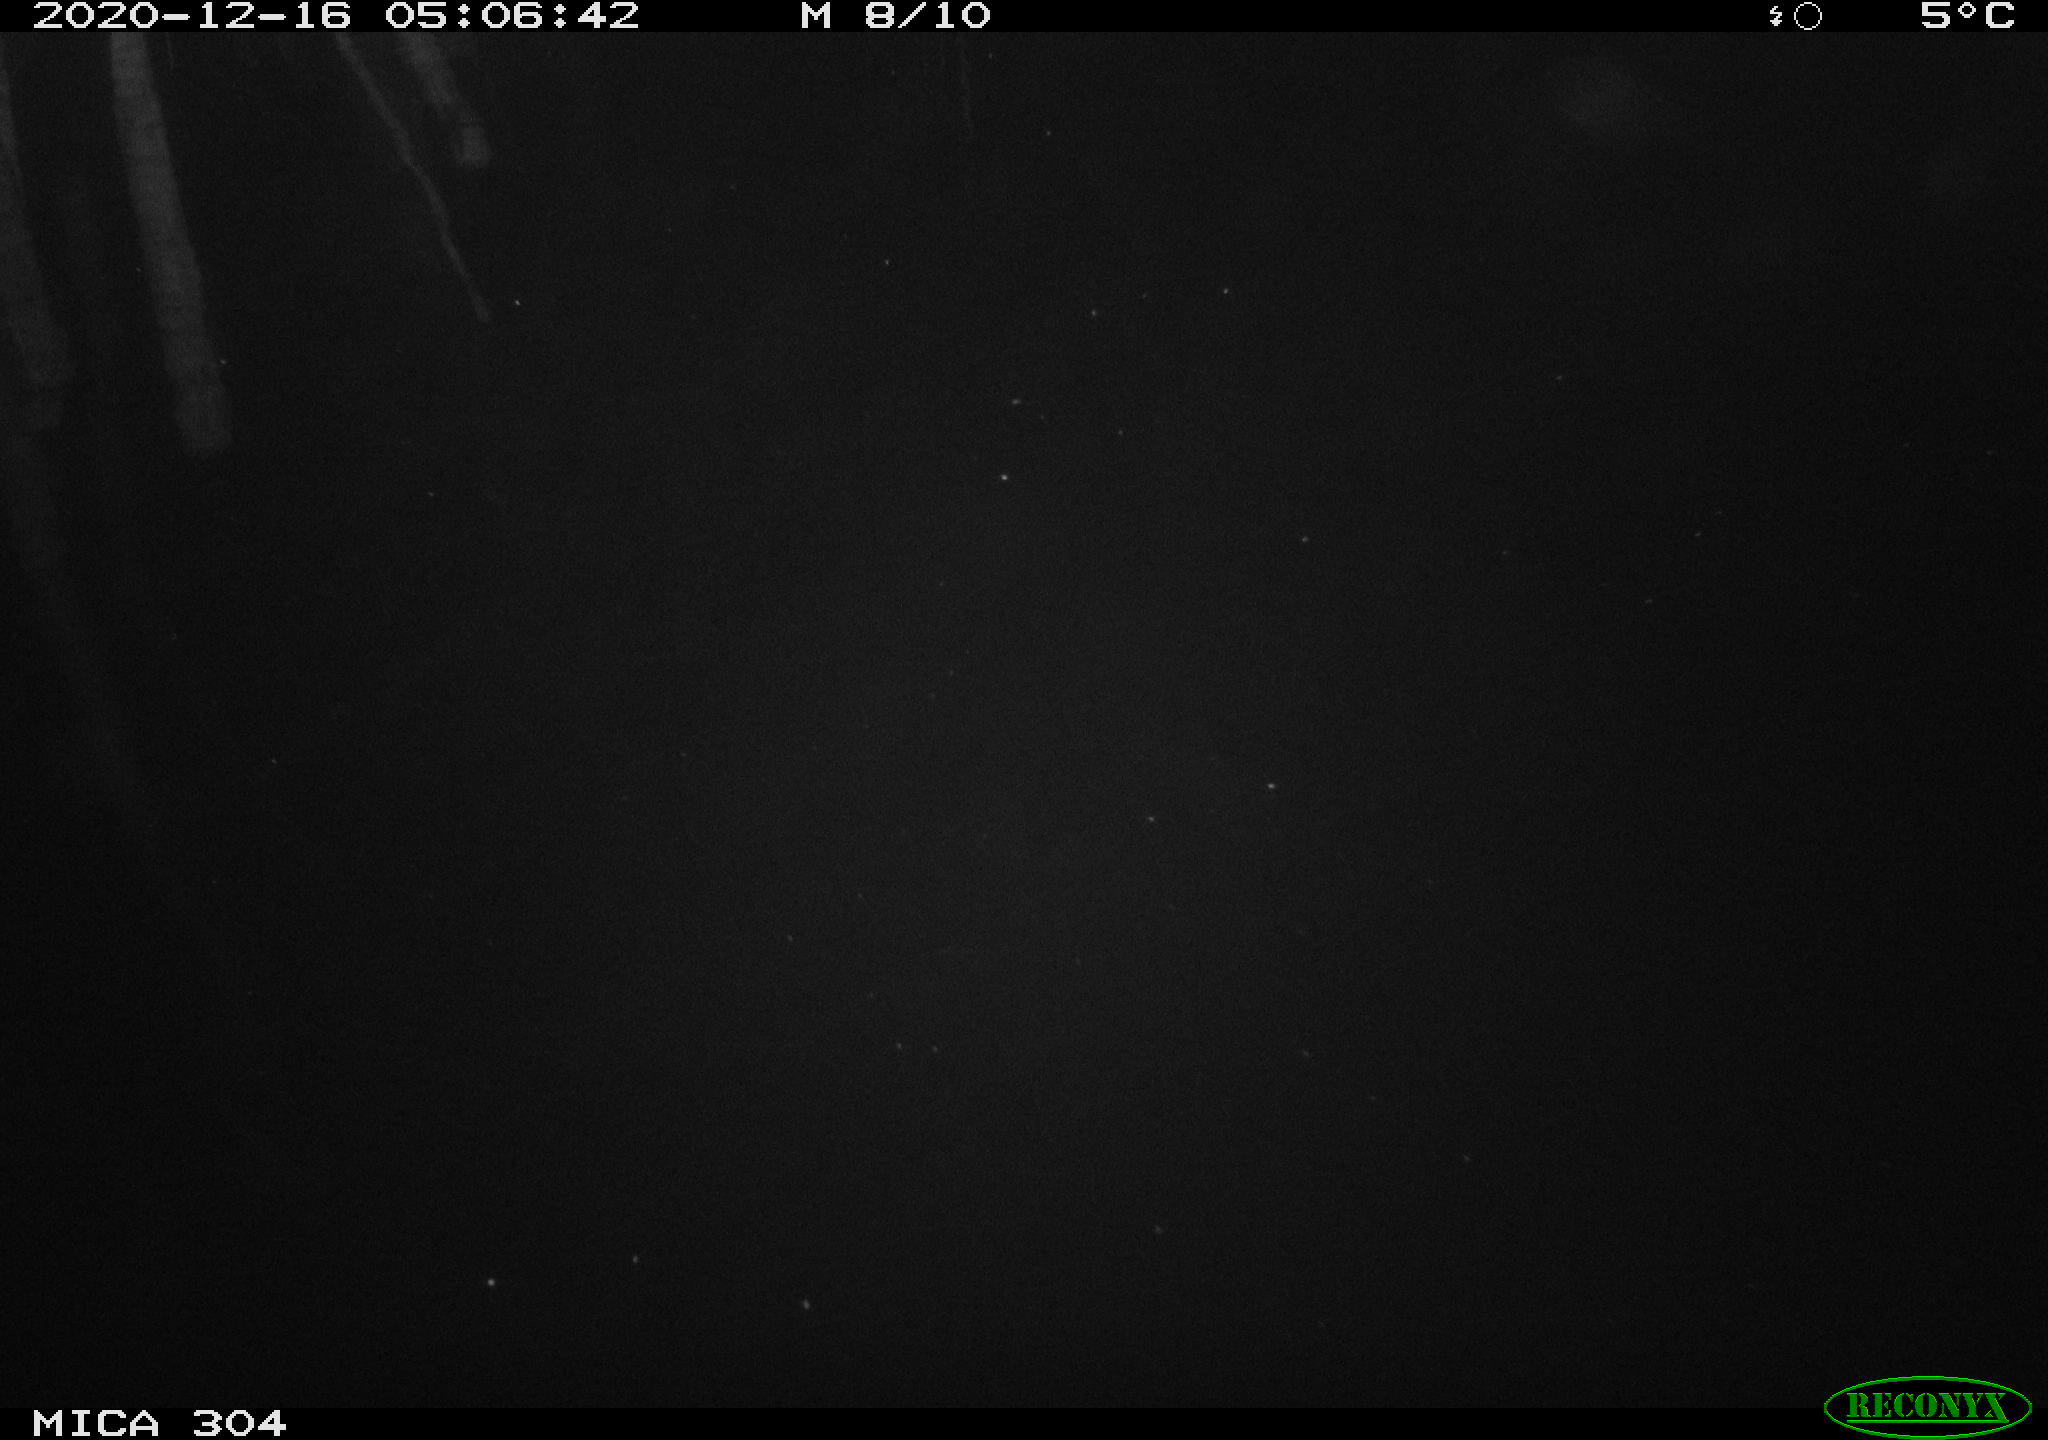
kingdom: Animalia
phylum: Chordata
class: Mammalia
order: Rodentia
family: Muridae
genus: Rattus
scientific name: Rattus norvegicus
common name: Brown rat
